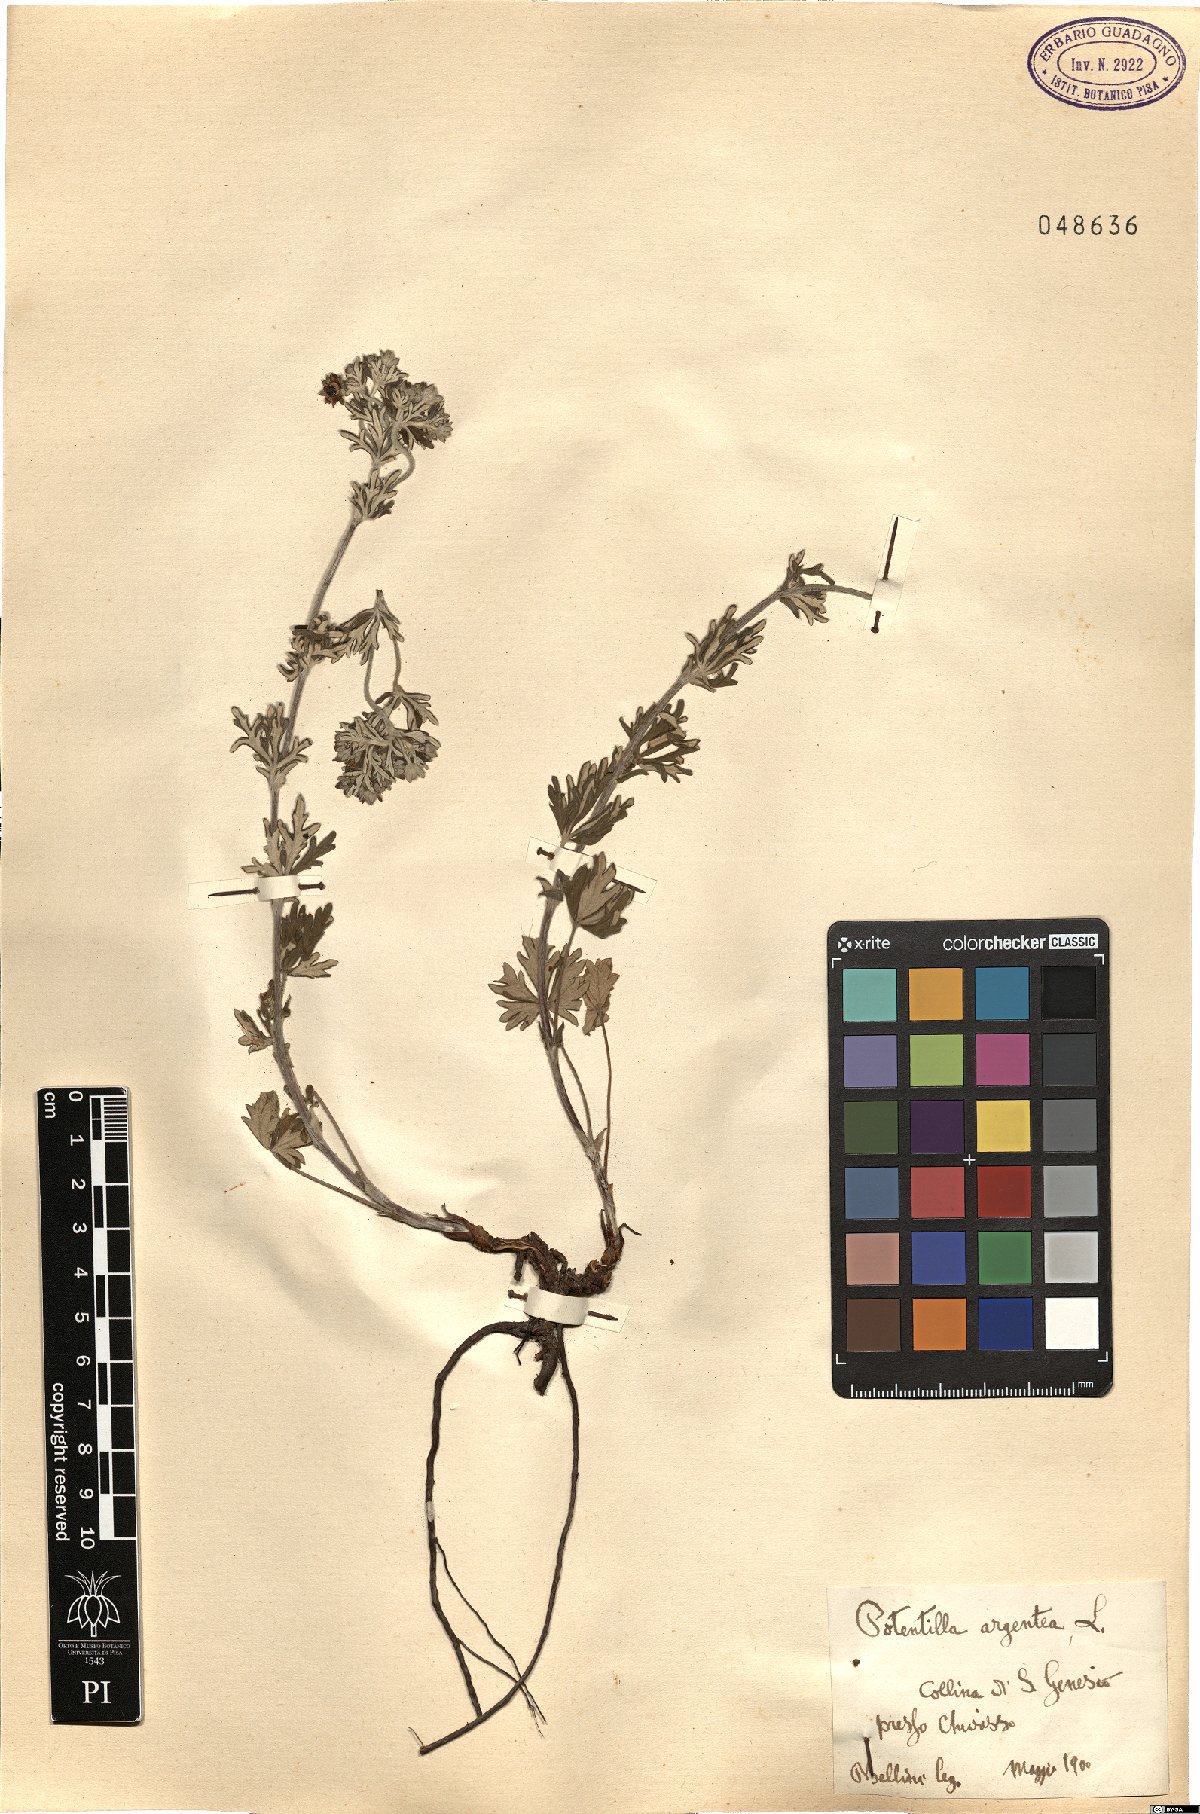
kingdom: Plantae
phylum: Tracheophyta
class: Magnoliopsida
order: Rosales
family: Rosaceae
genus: Potentilla
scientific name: Potentilla argentea
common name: Hoary cinquefoil
